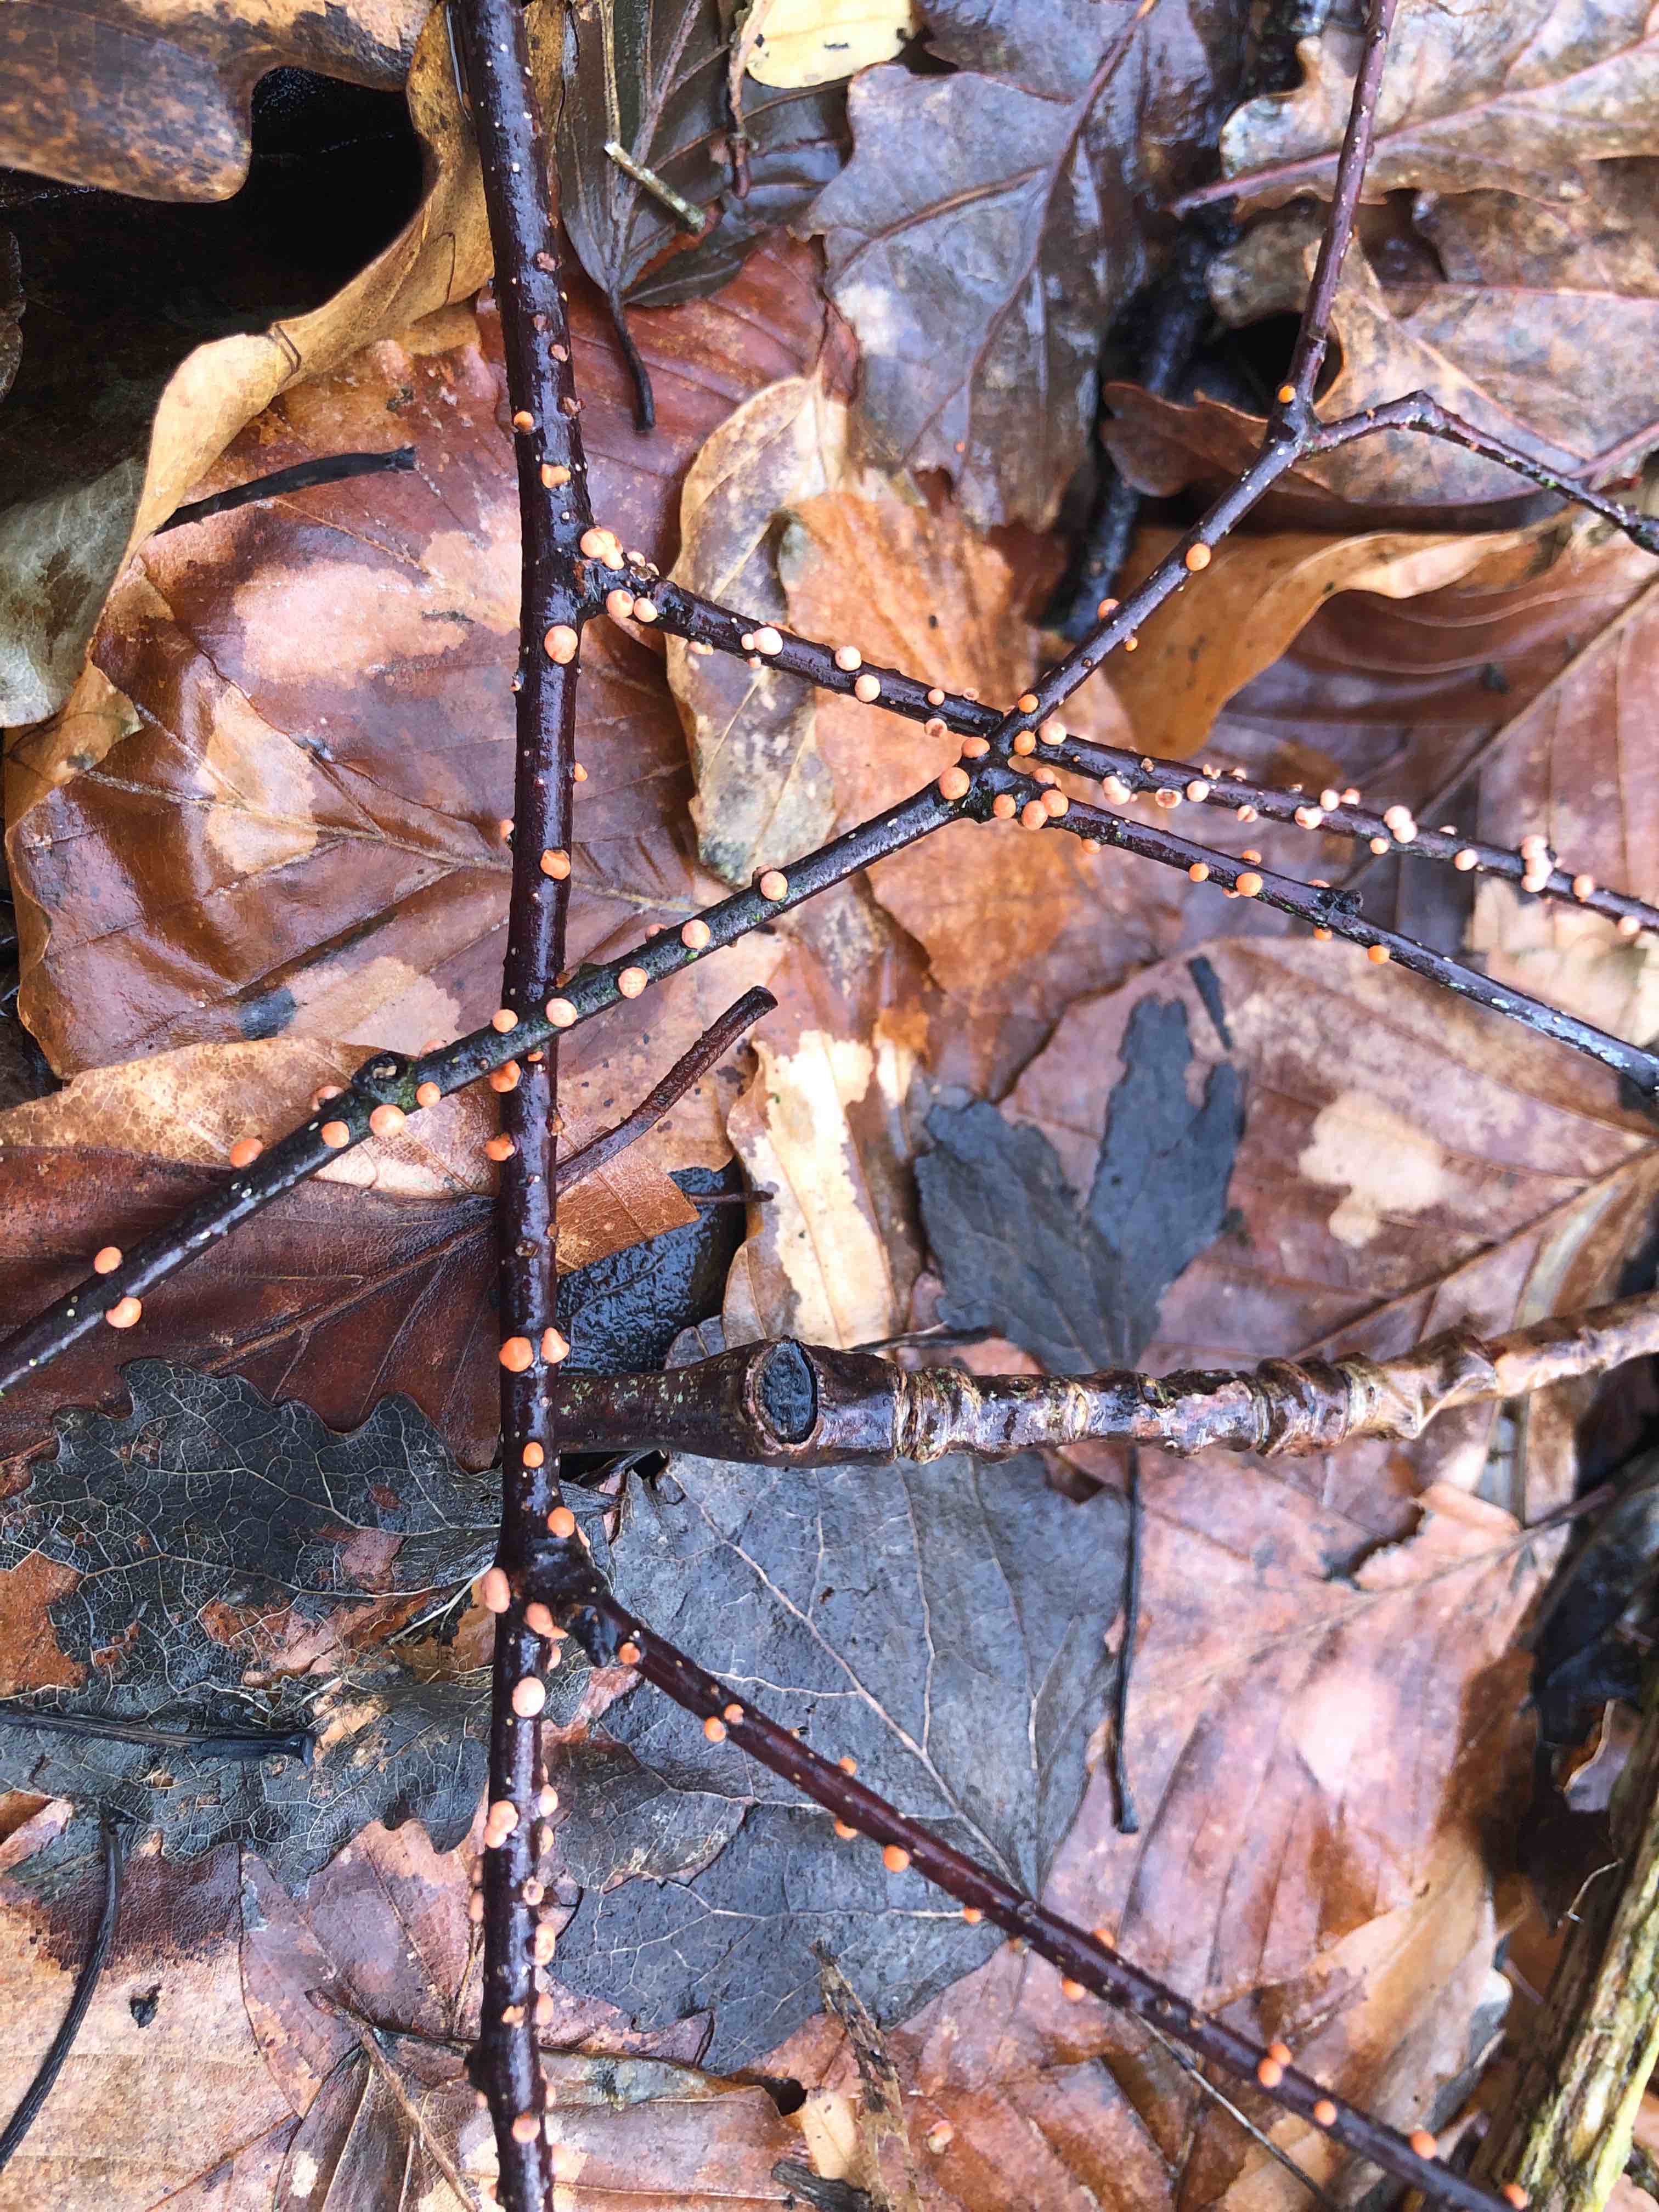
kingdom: Fungi
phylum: Ascomycota
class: Sordariomycetes
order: Hypocreales
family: Nectriaceae
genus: Nectria
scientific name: Nectria cinnabarina
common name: almindelig cinnobersvamp
